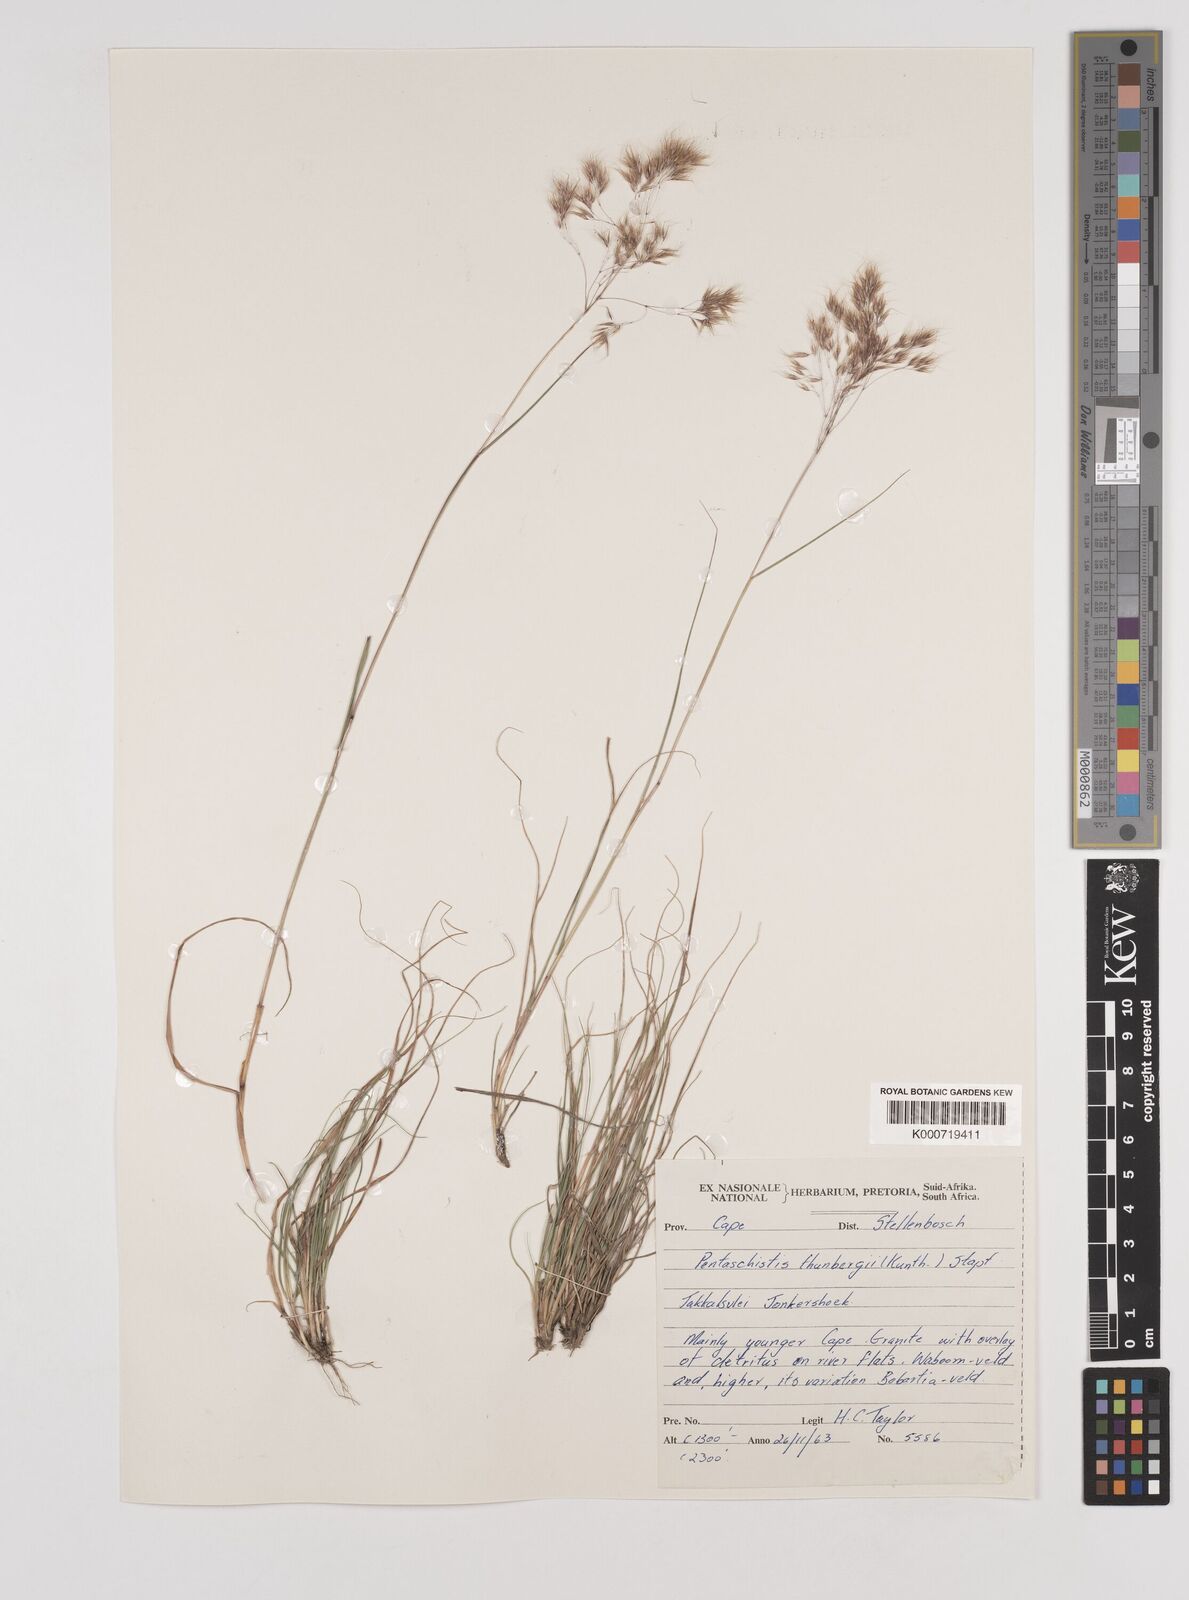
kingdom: Plantae
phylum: Tracheophyta
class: Liliopsida
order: Poales
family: Poaceae
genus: Pentameris
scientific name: Pentameris triseta
